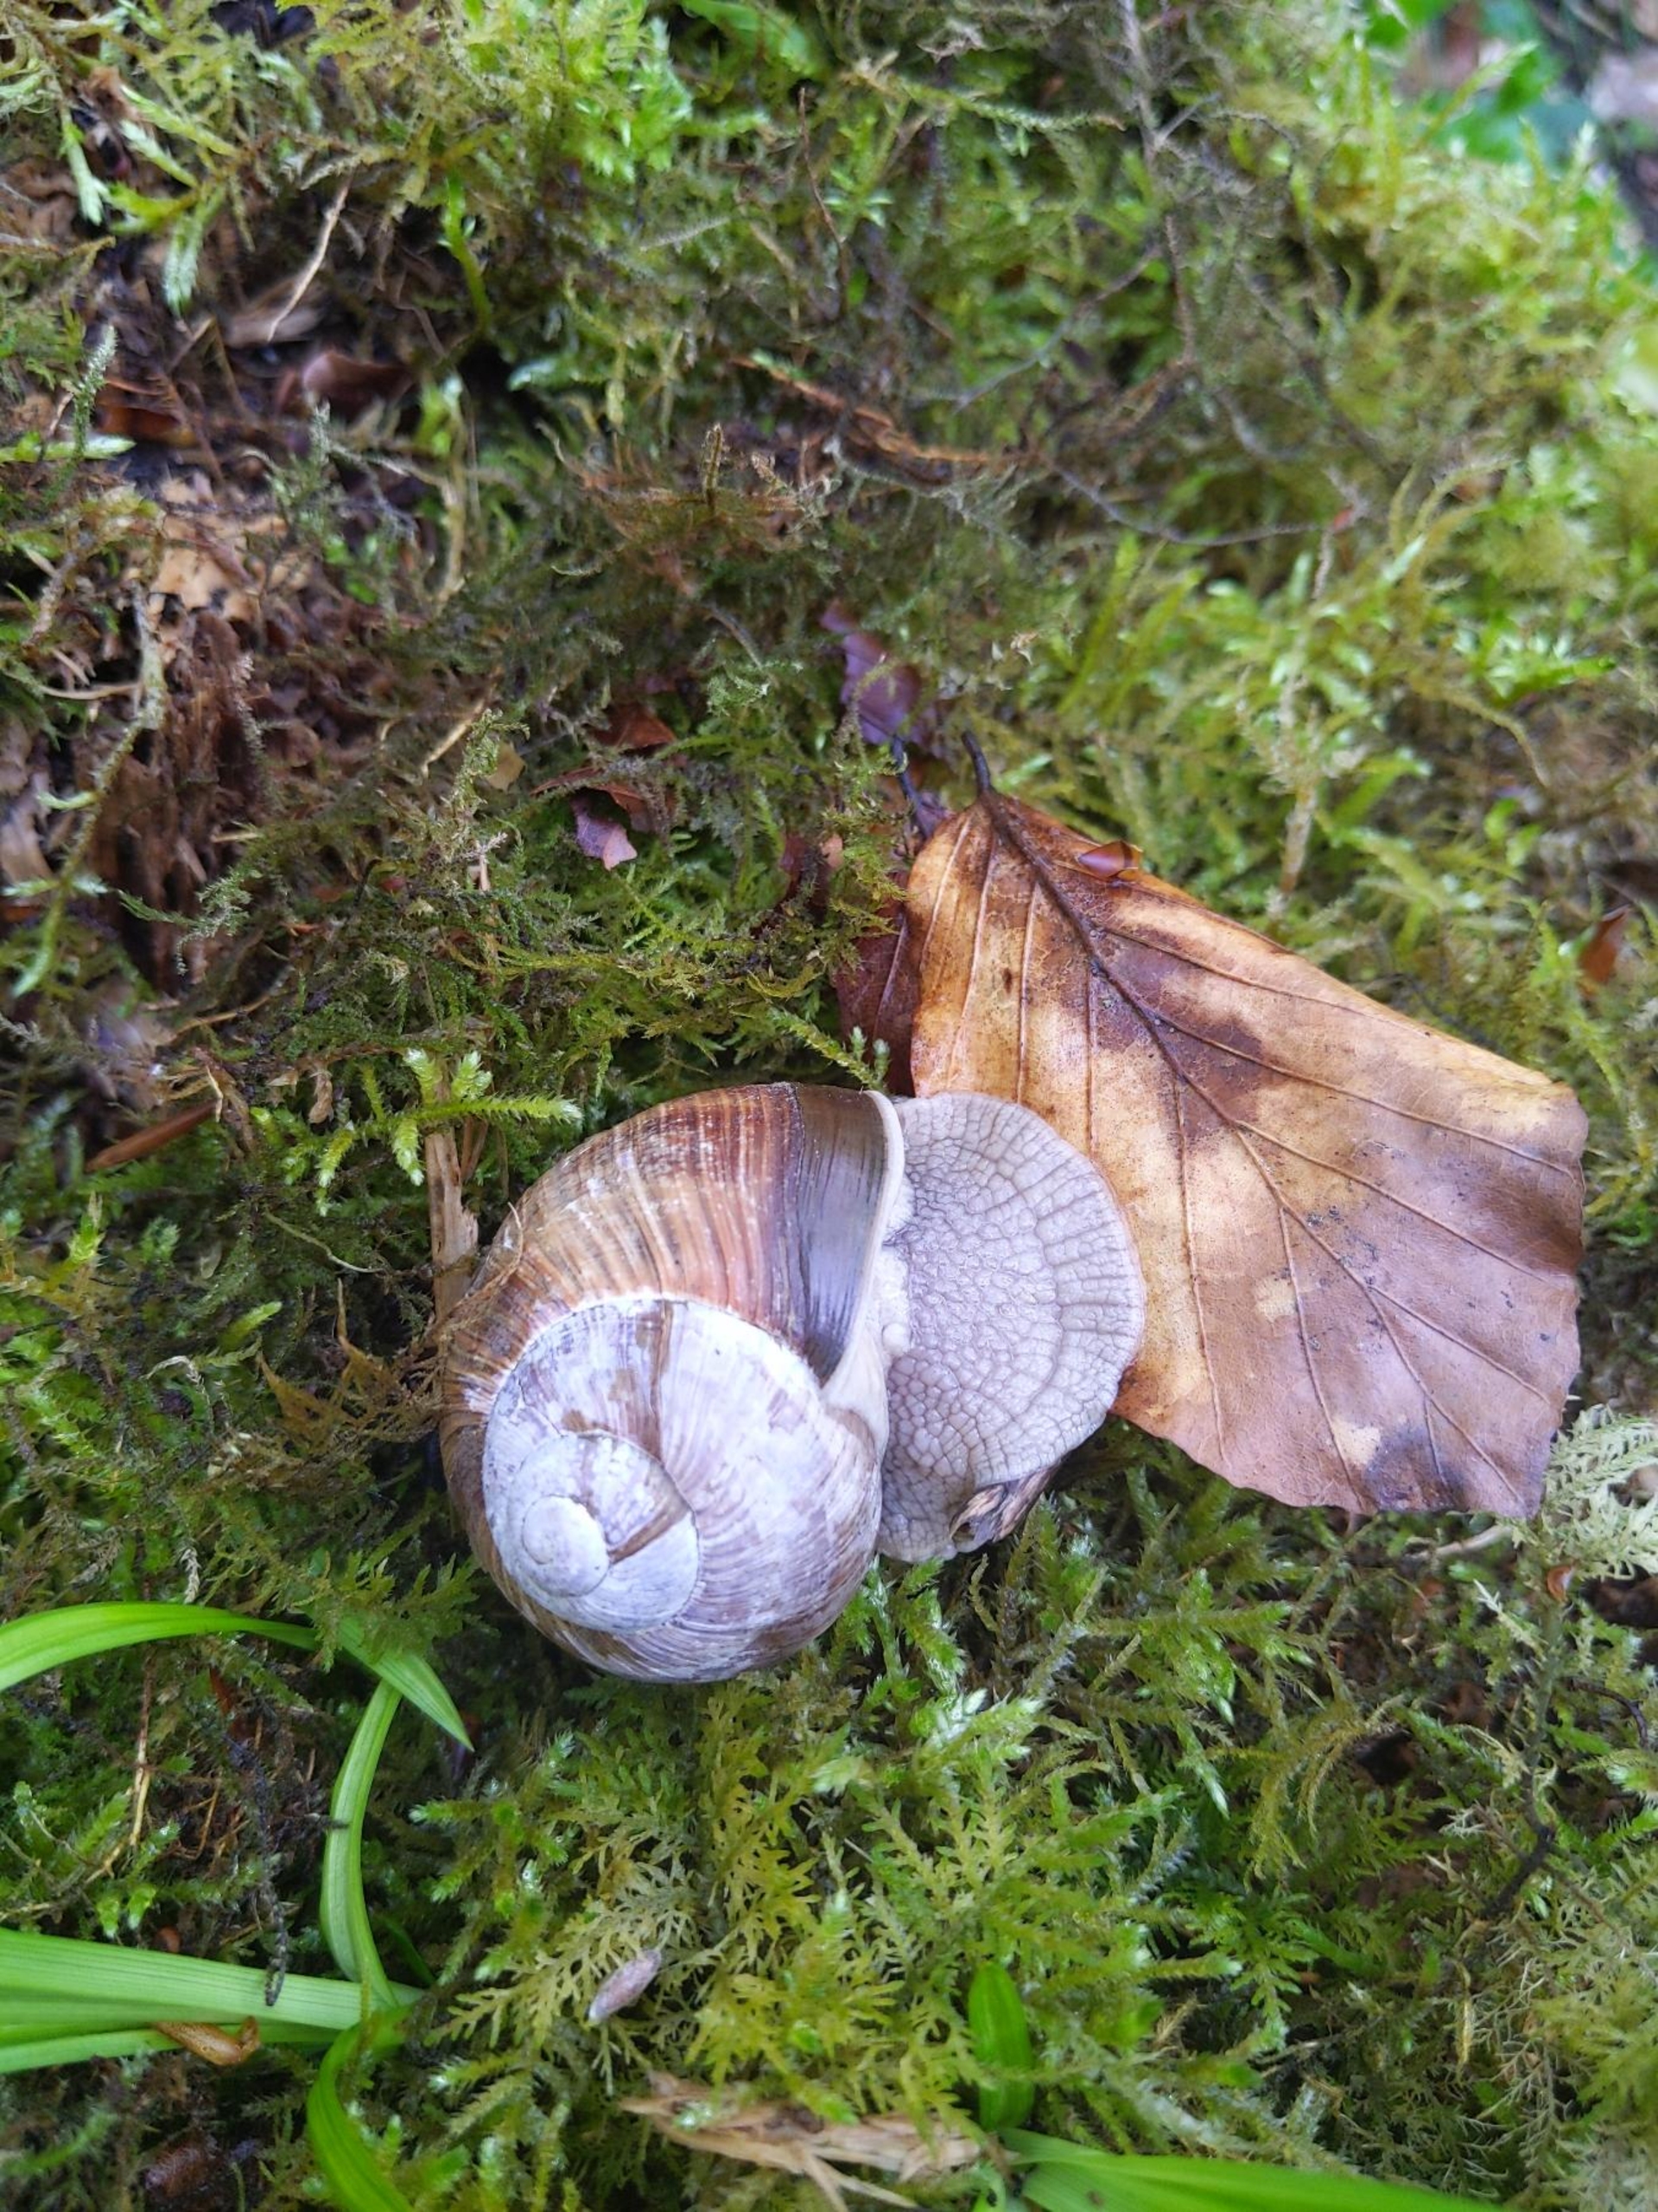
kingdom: Animalia
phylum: Mollusca
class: Gastropoda
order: Stylommatophora
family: Helicidae
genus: Helix
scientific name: Helix pomatia
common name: Vinbjergsnegl
